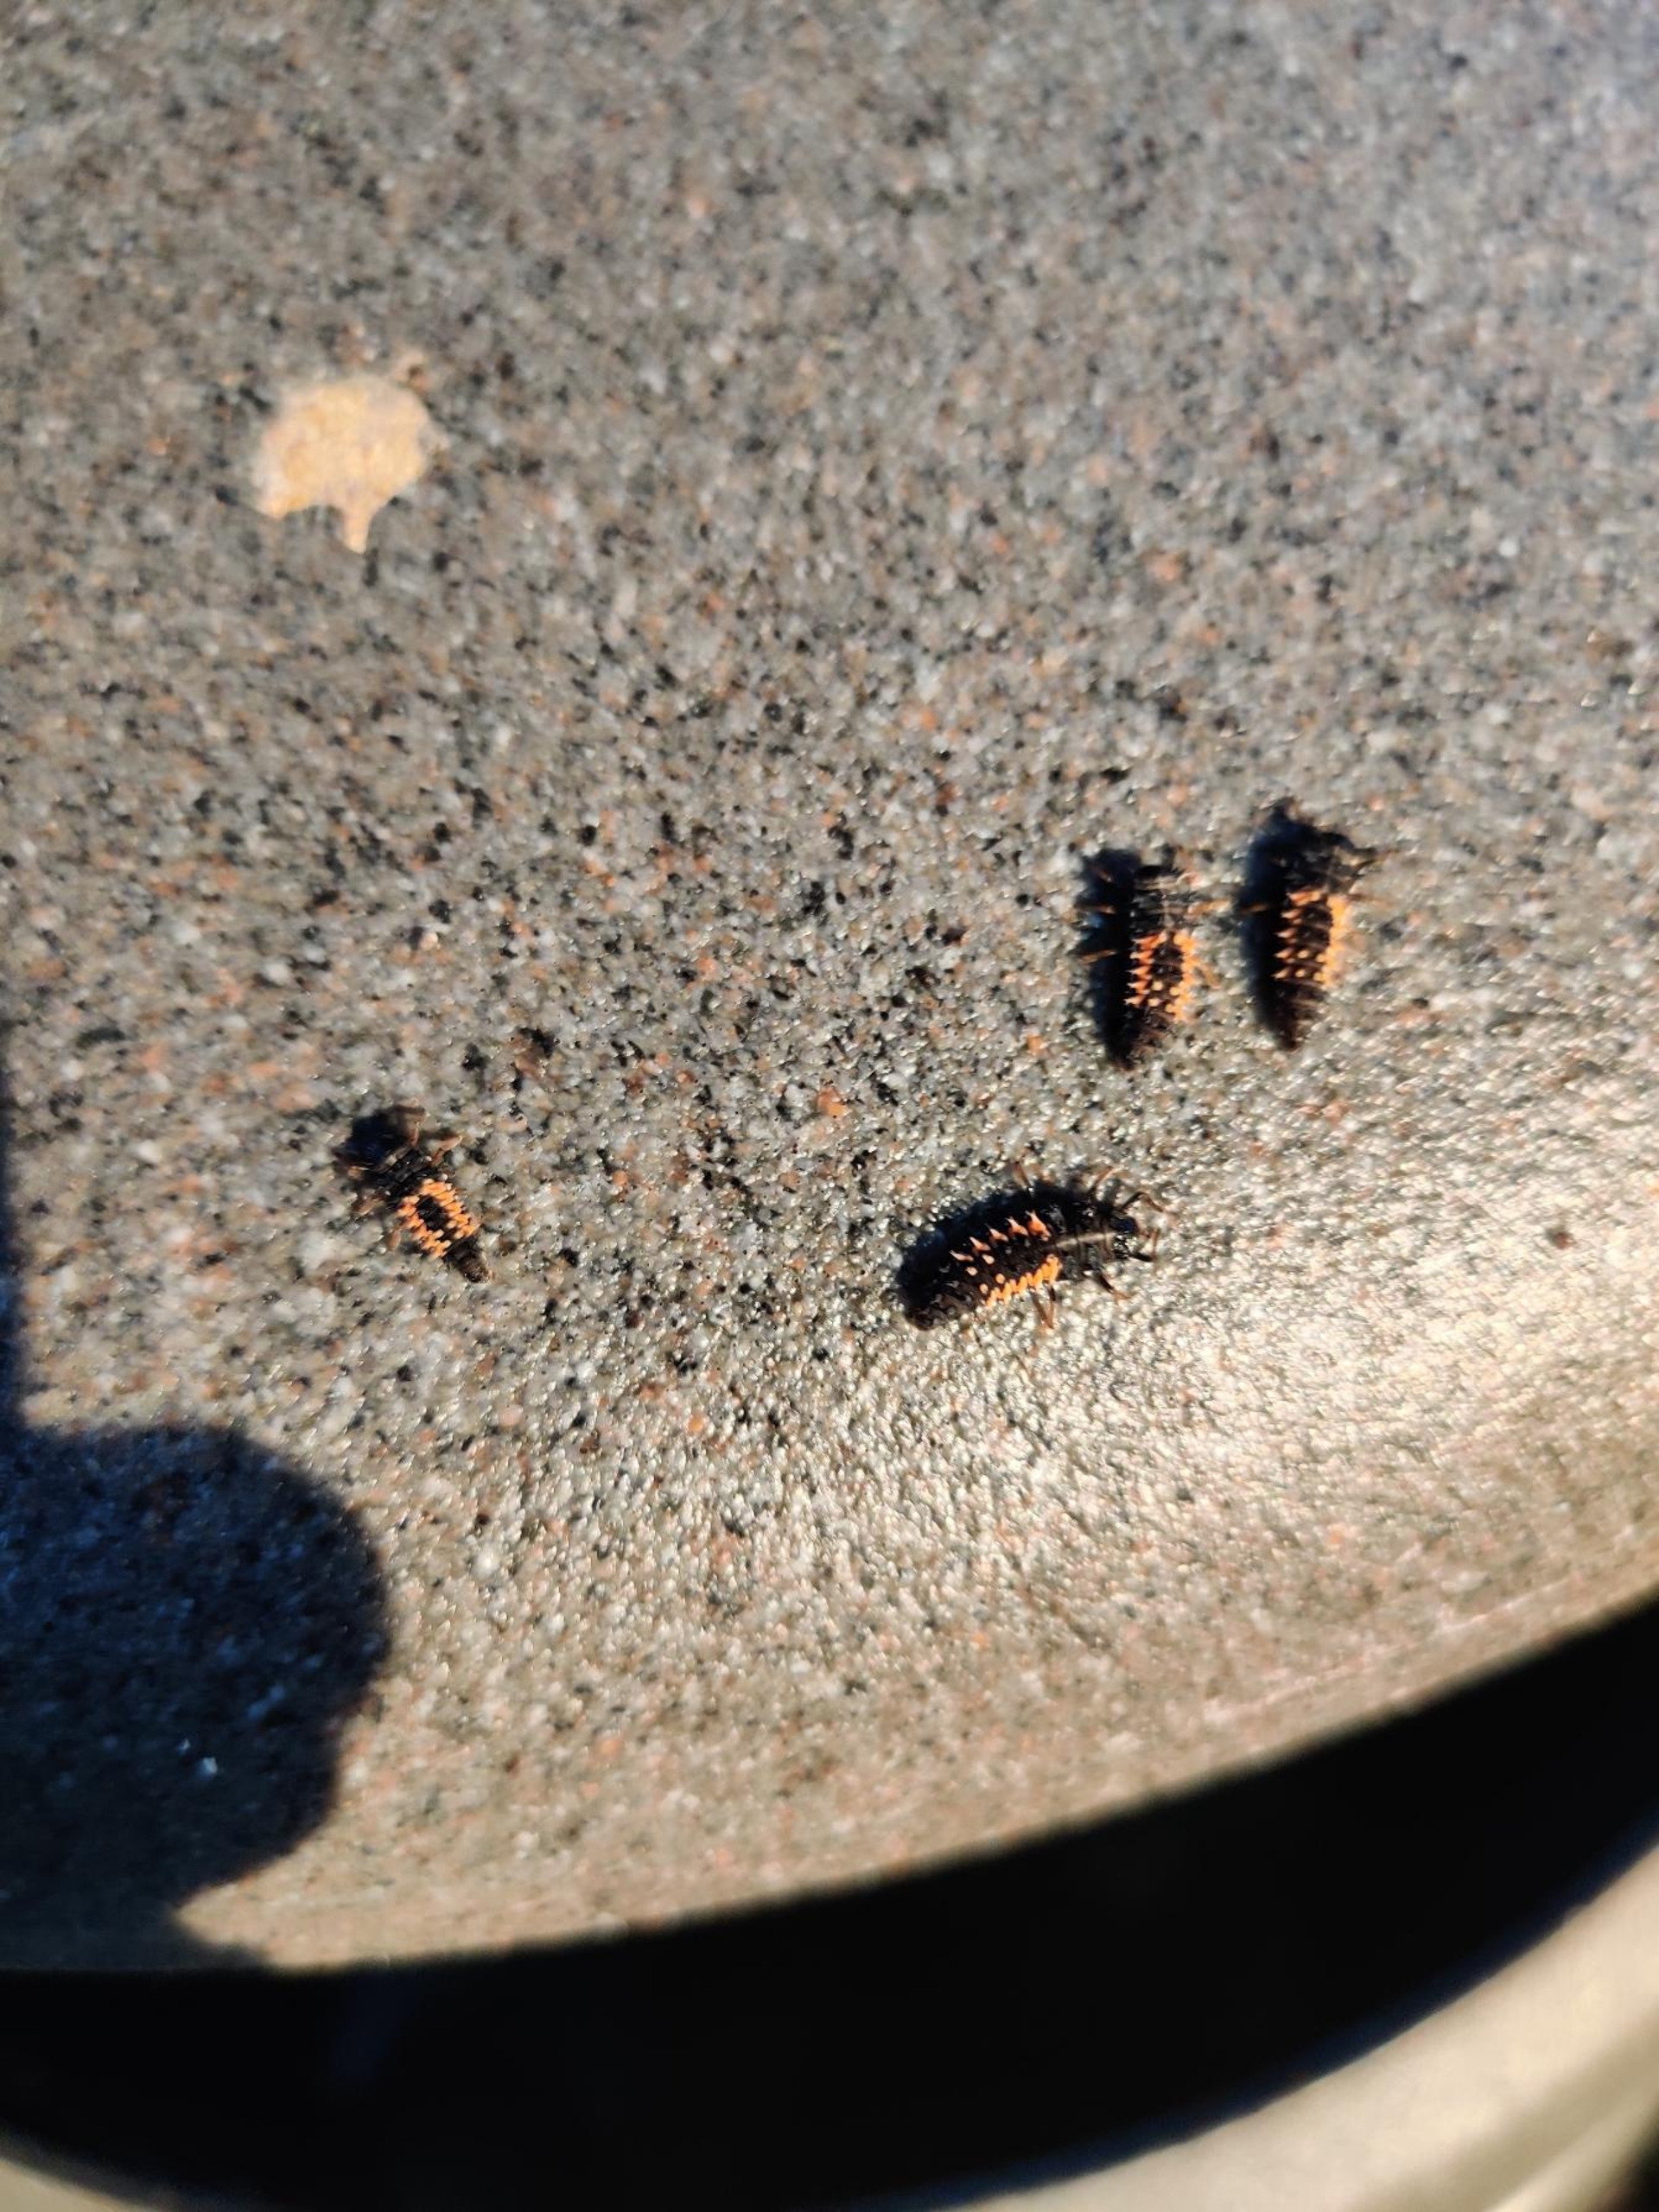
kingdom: Animalia
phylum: Arthropoda
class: Insecta
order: Coleoptera
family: Coccinellidae
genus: Harmonia
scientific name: Harmonia axyridis
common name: Harlekinmariehøne
